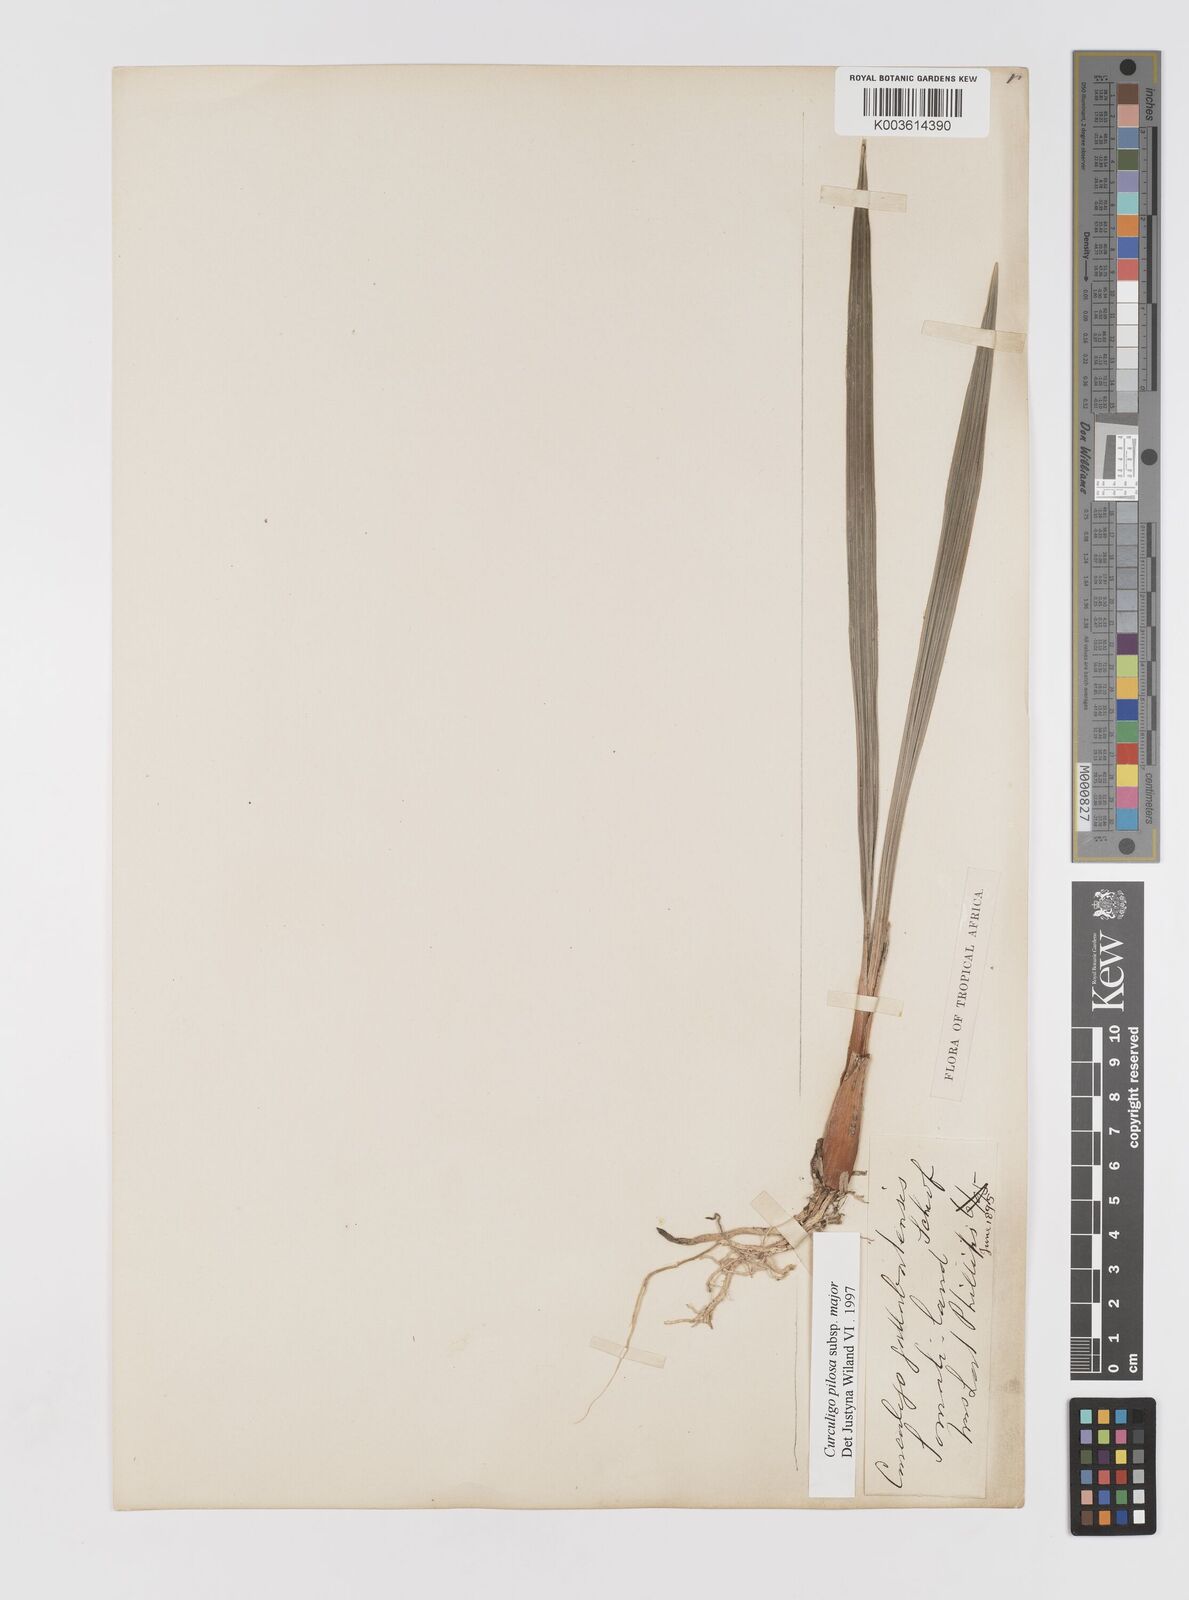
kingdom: Plantae
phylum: Tracheophyta
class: Liliopsida
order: Asparagales
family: Hypoxidaceae
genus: Curculigo
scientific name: Curculigo pilosa
